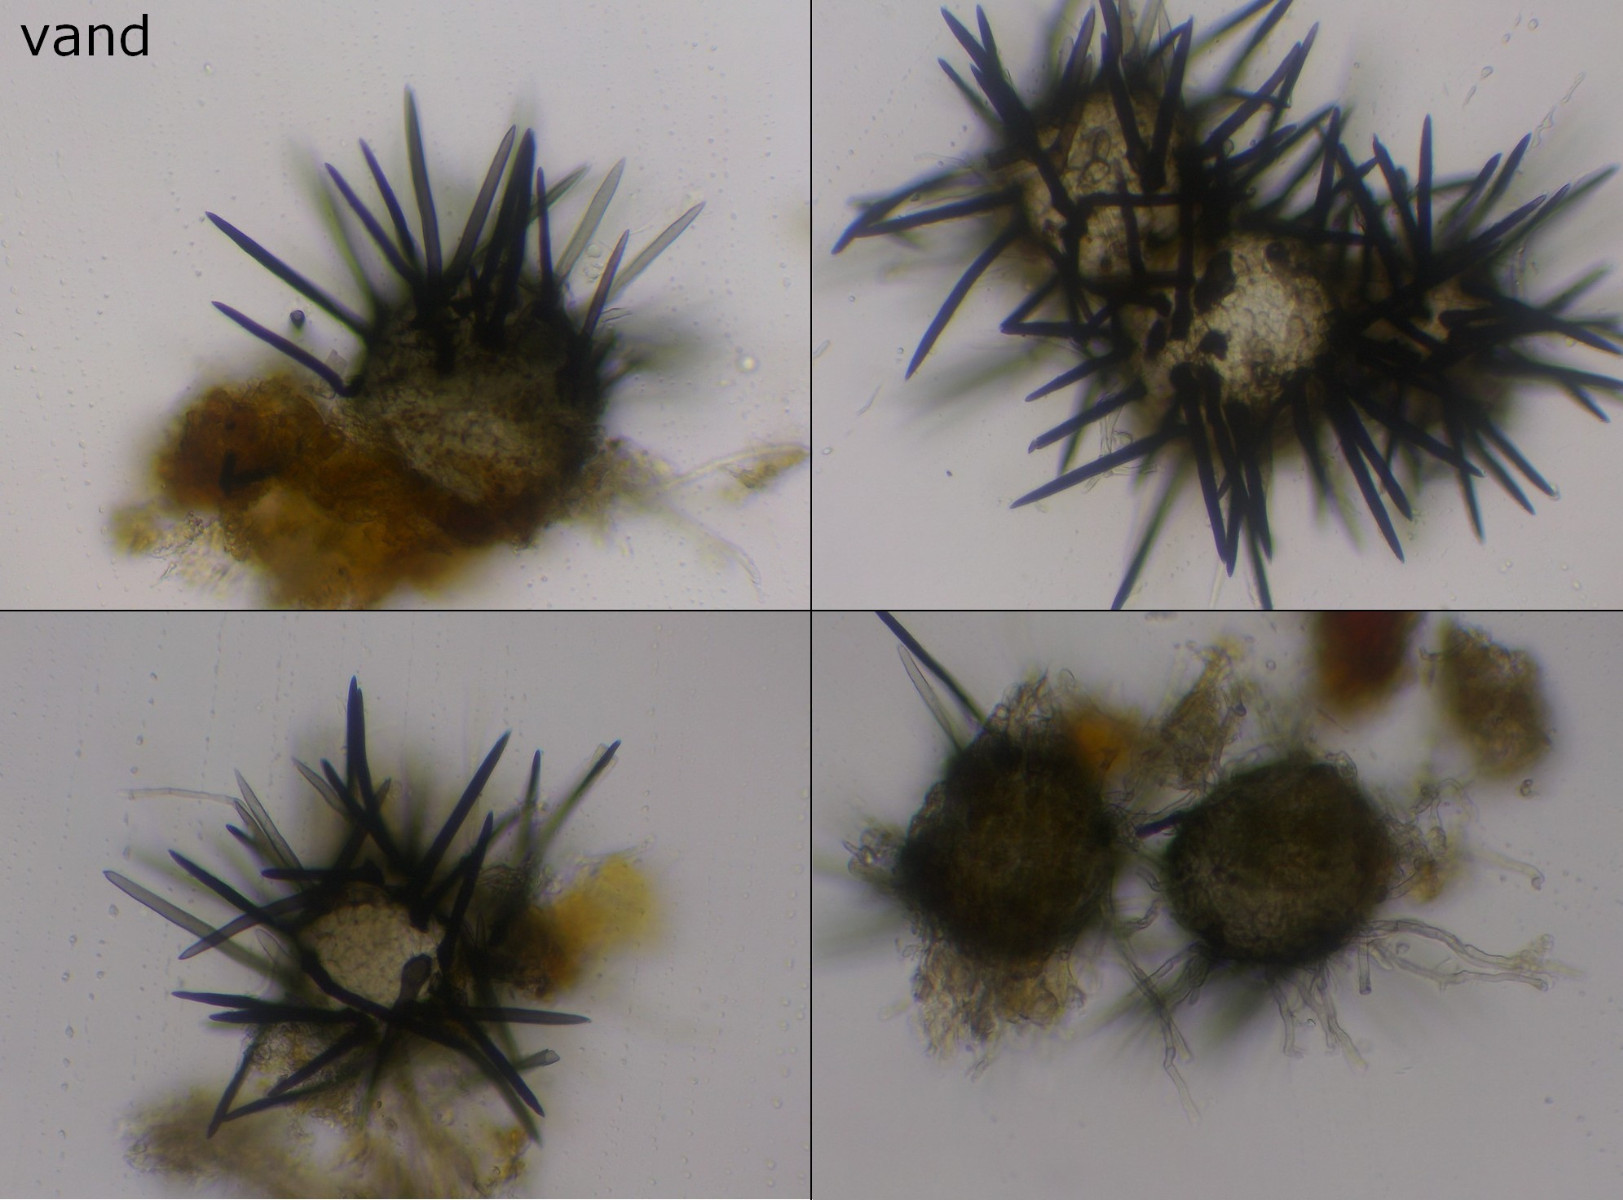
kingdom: Fungi
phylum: Ascomycota
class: Dothideomycetes
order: Tubeufiales
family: Tubeufiaceae
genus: Acanthohelicospora
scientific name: Acanthohelicospora scopula
